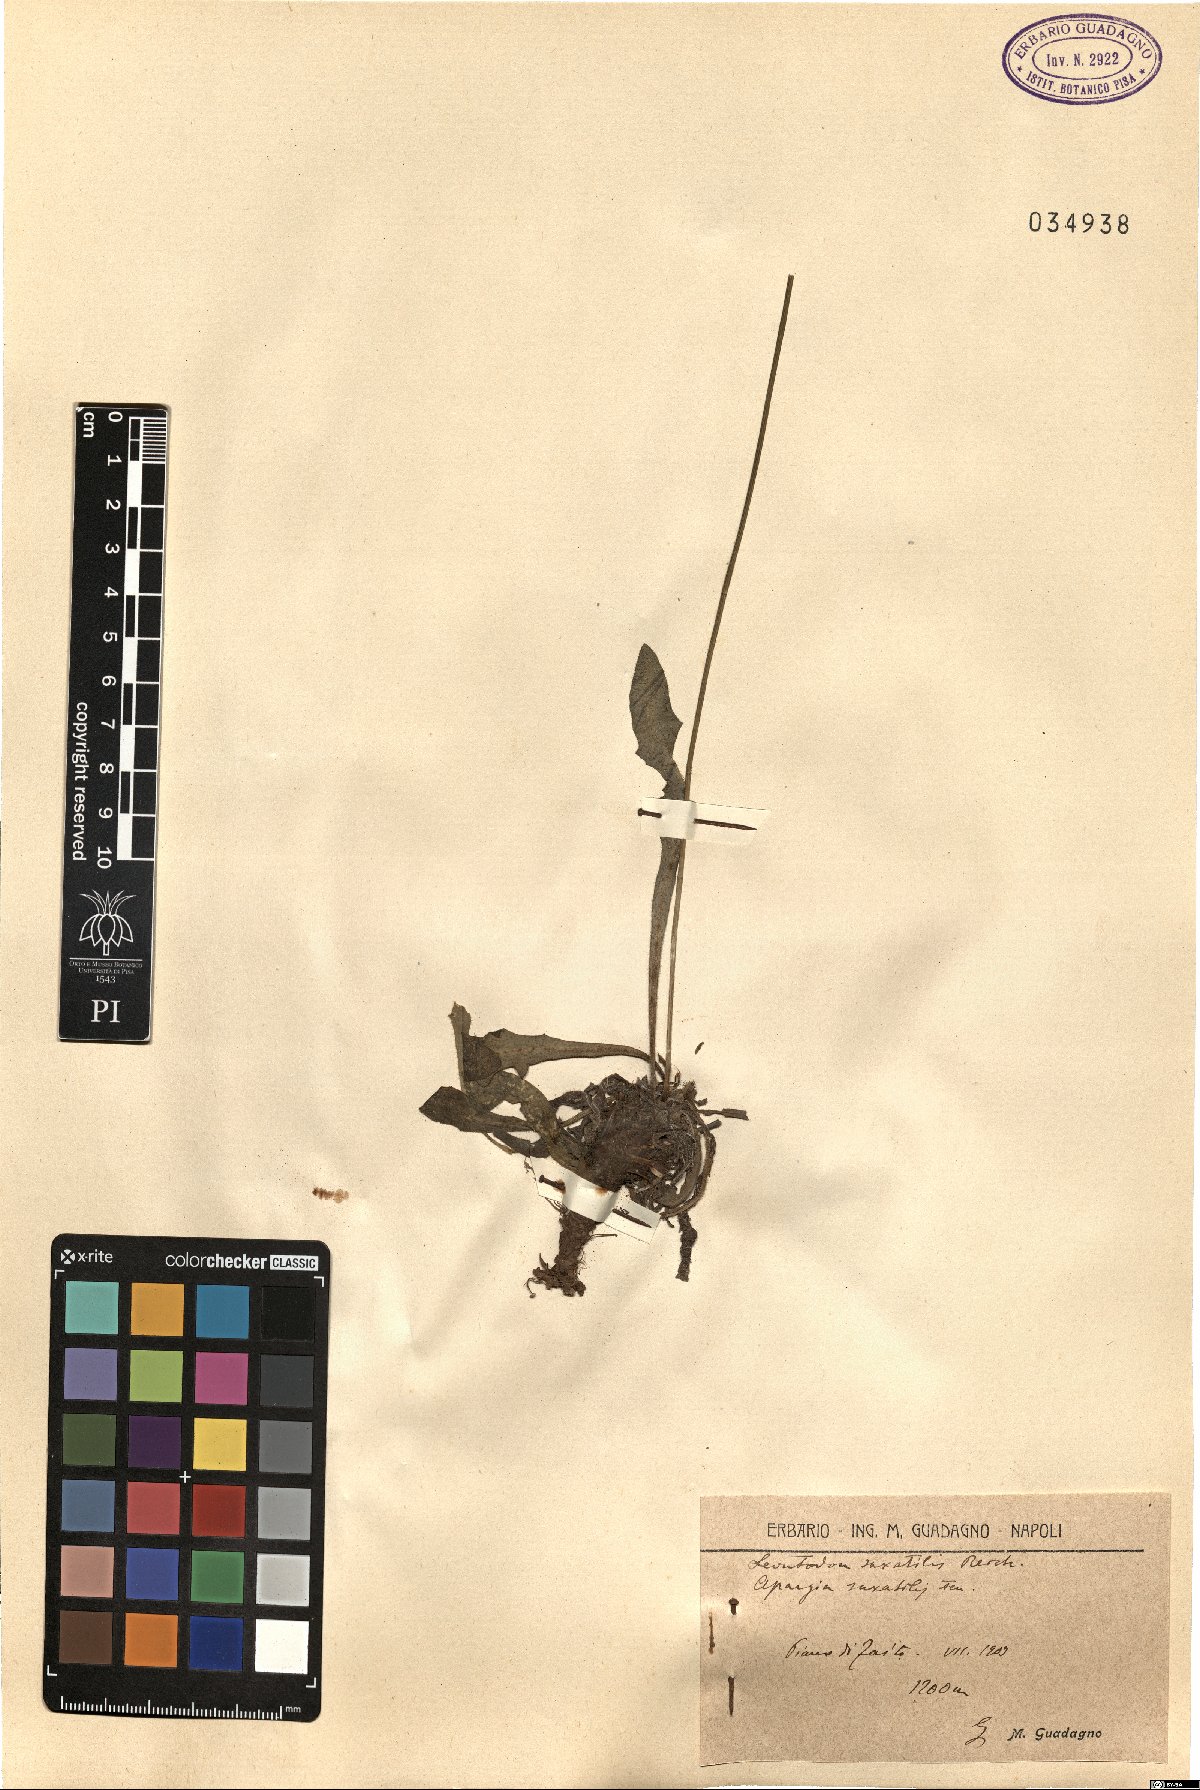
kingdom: Plantae
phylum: Tracheophyta
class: Magnoliopsida
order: Asterales
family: Asteraceae
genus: Thrincia
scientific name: Thrincia saxatilis
